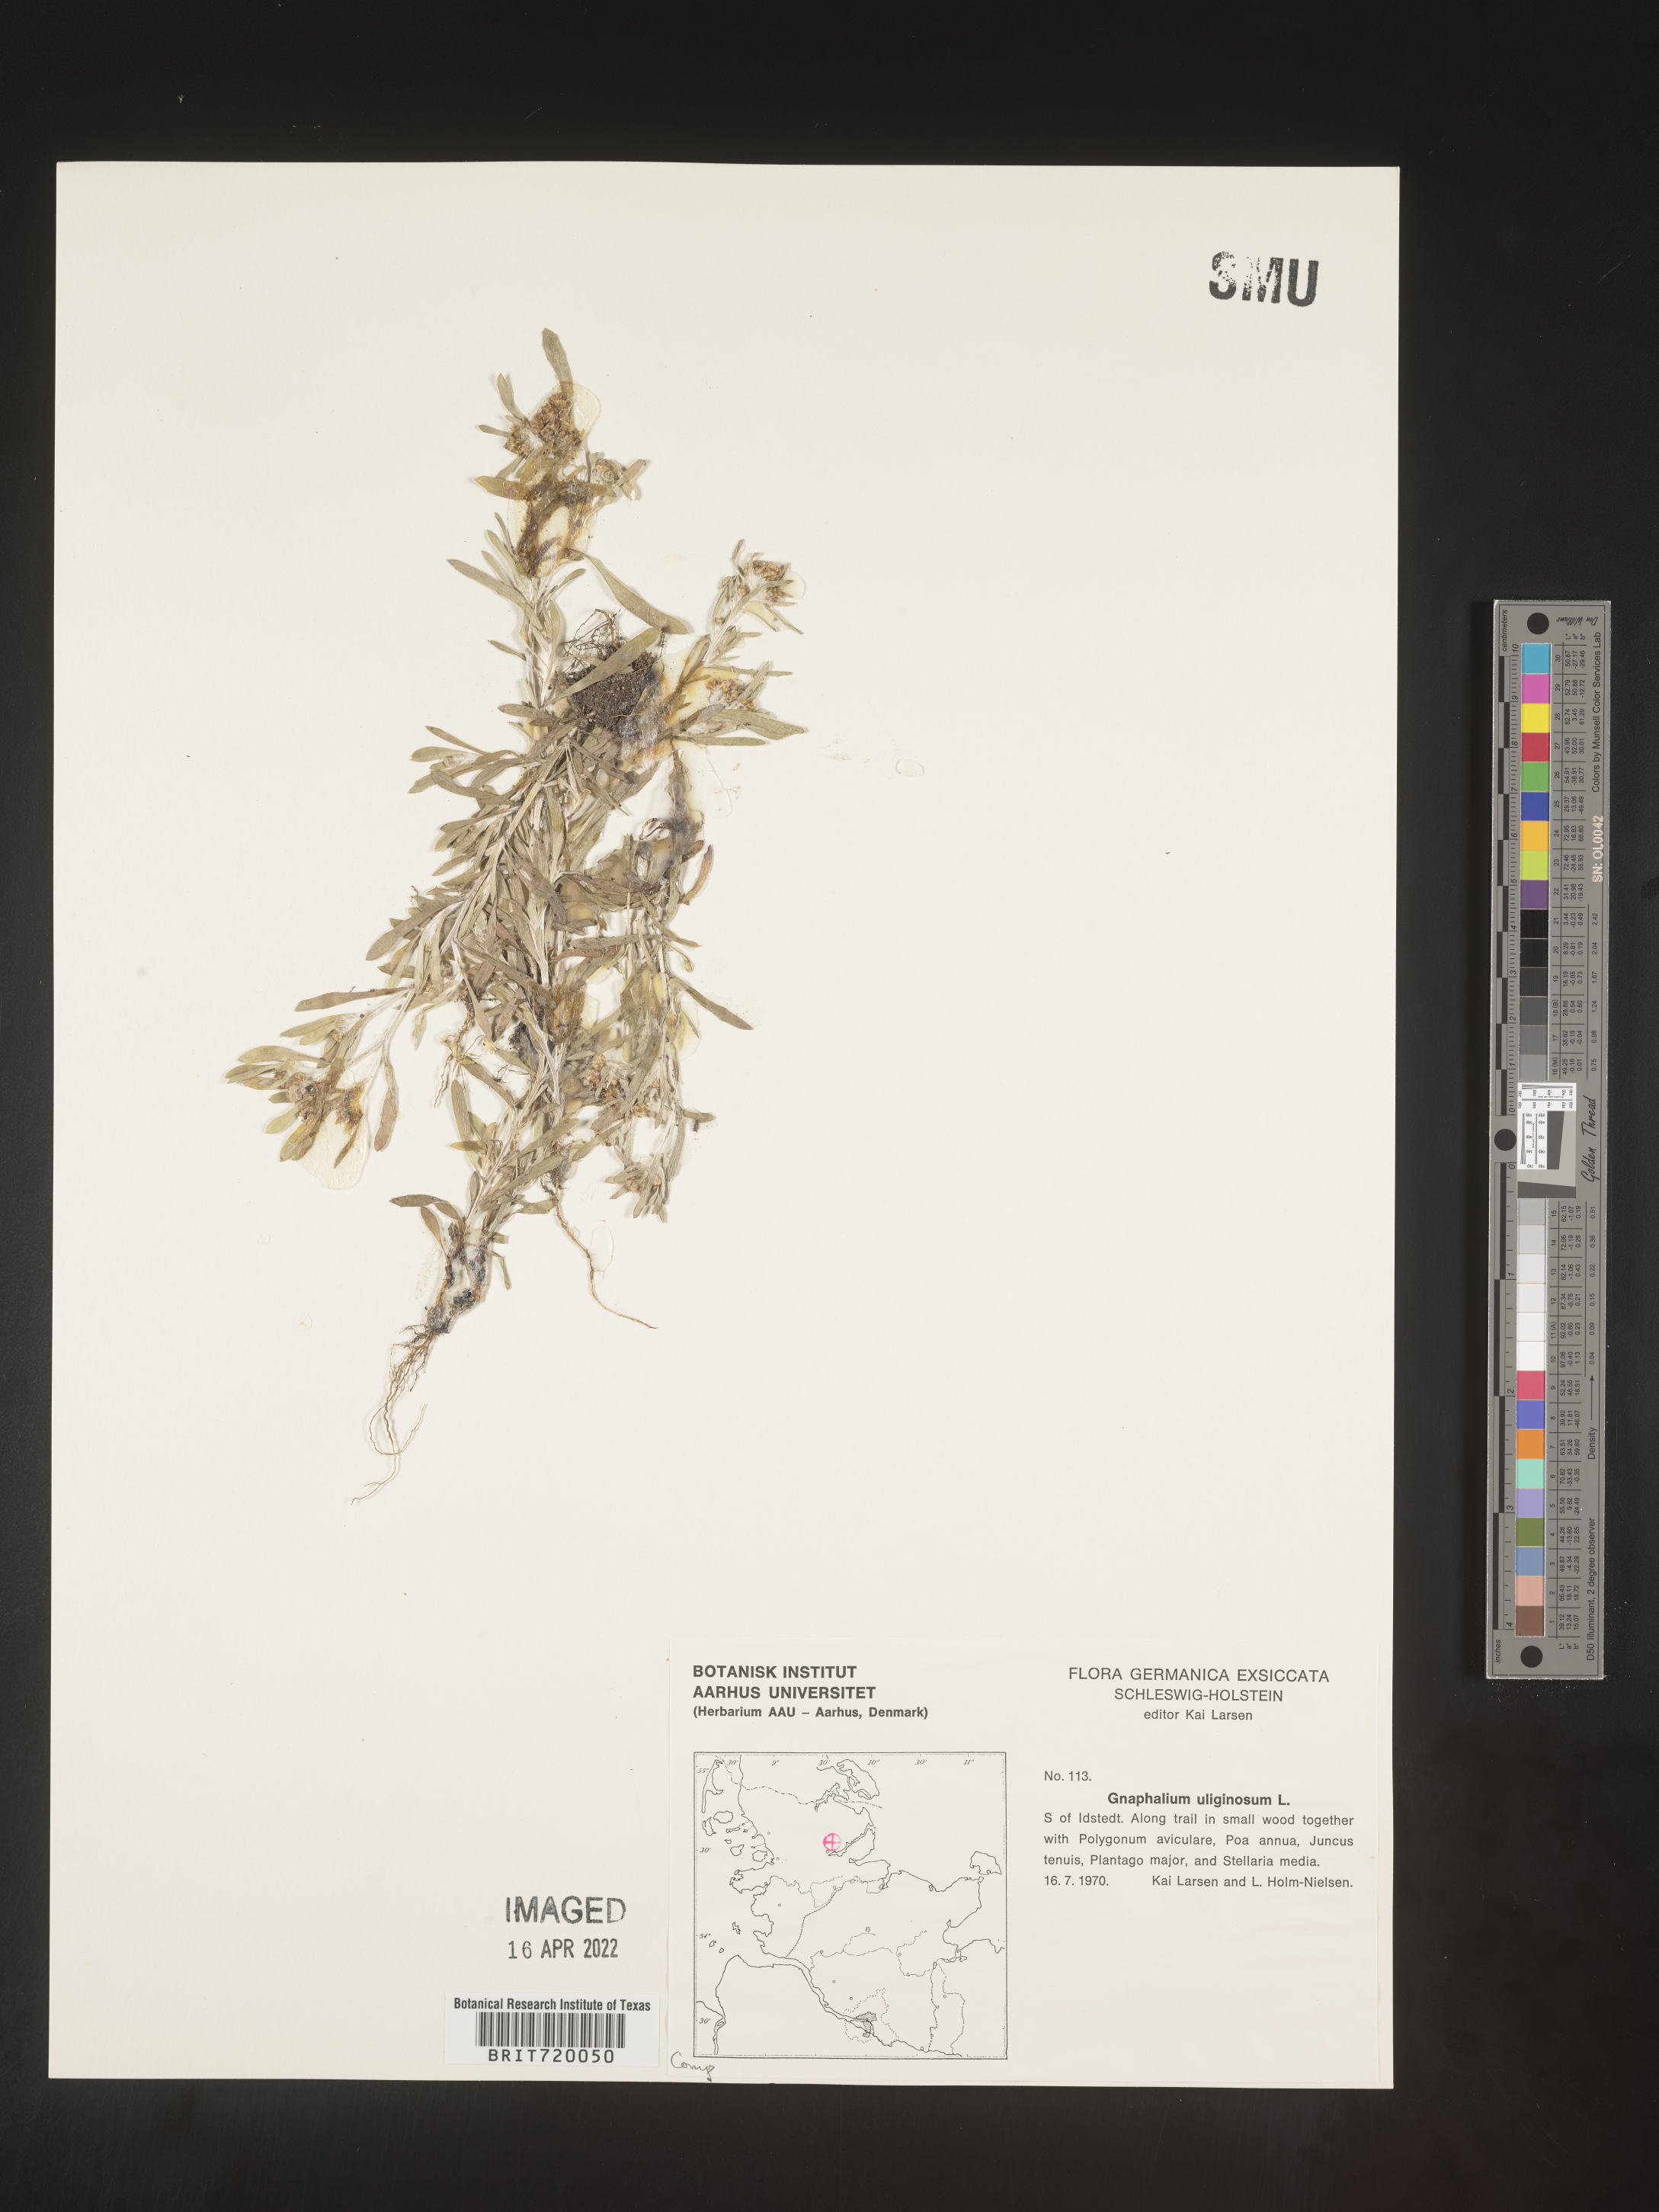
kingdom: Plantae
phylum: Tracheophyta
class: Magnoliopsida
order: Asterales
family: Asteraceae
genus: Gnaphalium
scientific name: Gnaphalium
